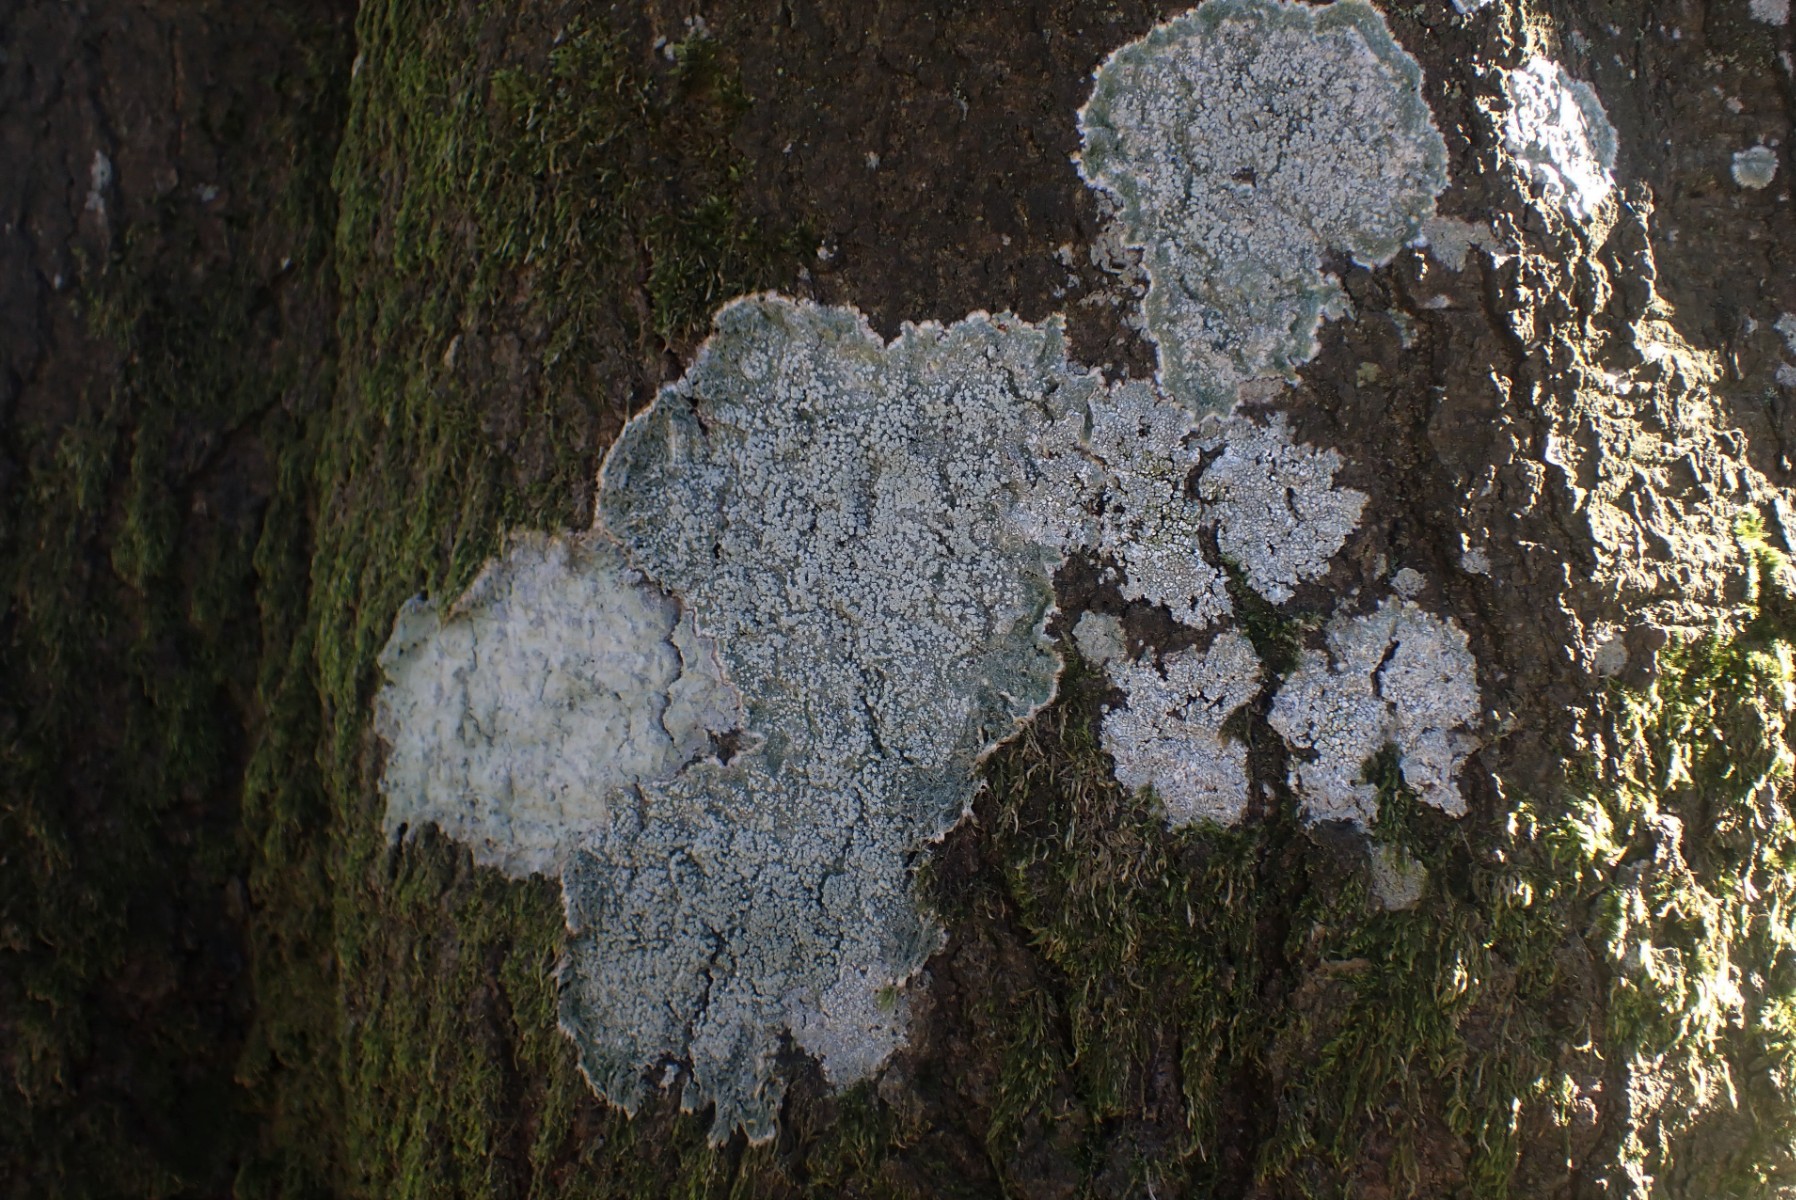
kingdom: Fungi
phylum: Ascomycota
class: Lecanoromycetes
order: Pertusariales
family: Pertusariaceae
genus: Lepra
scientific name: Lepra amara
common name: bitter prikvortelav
